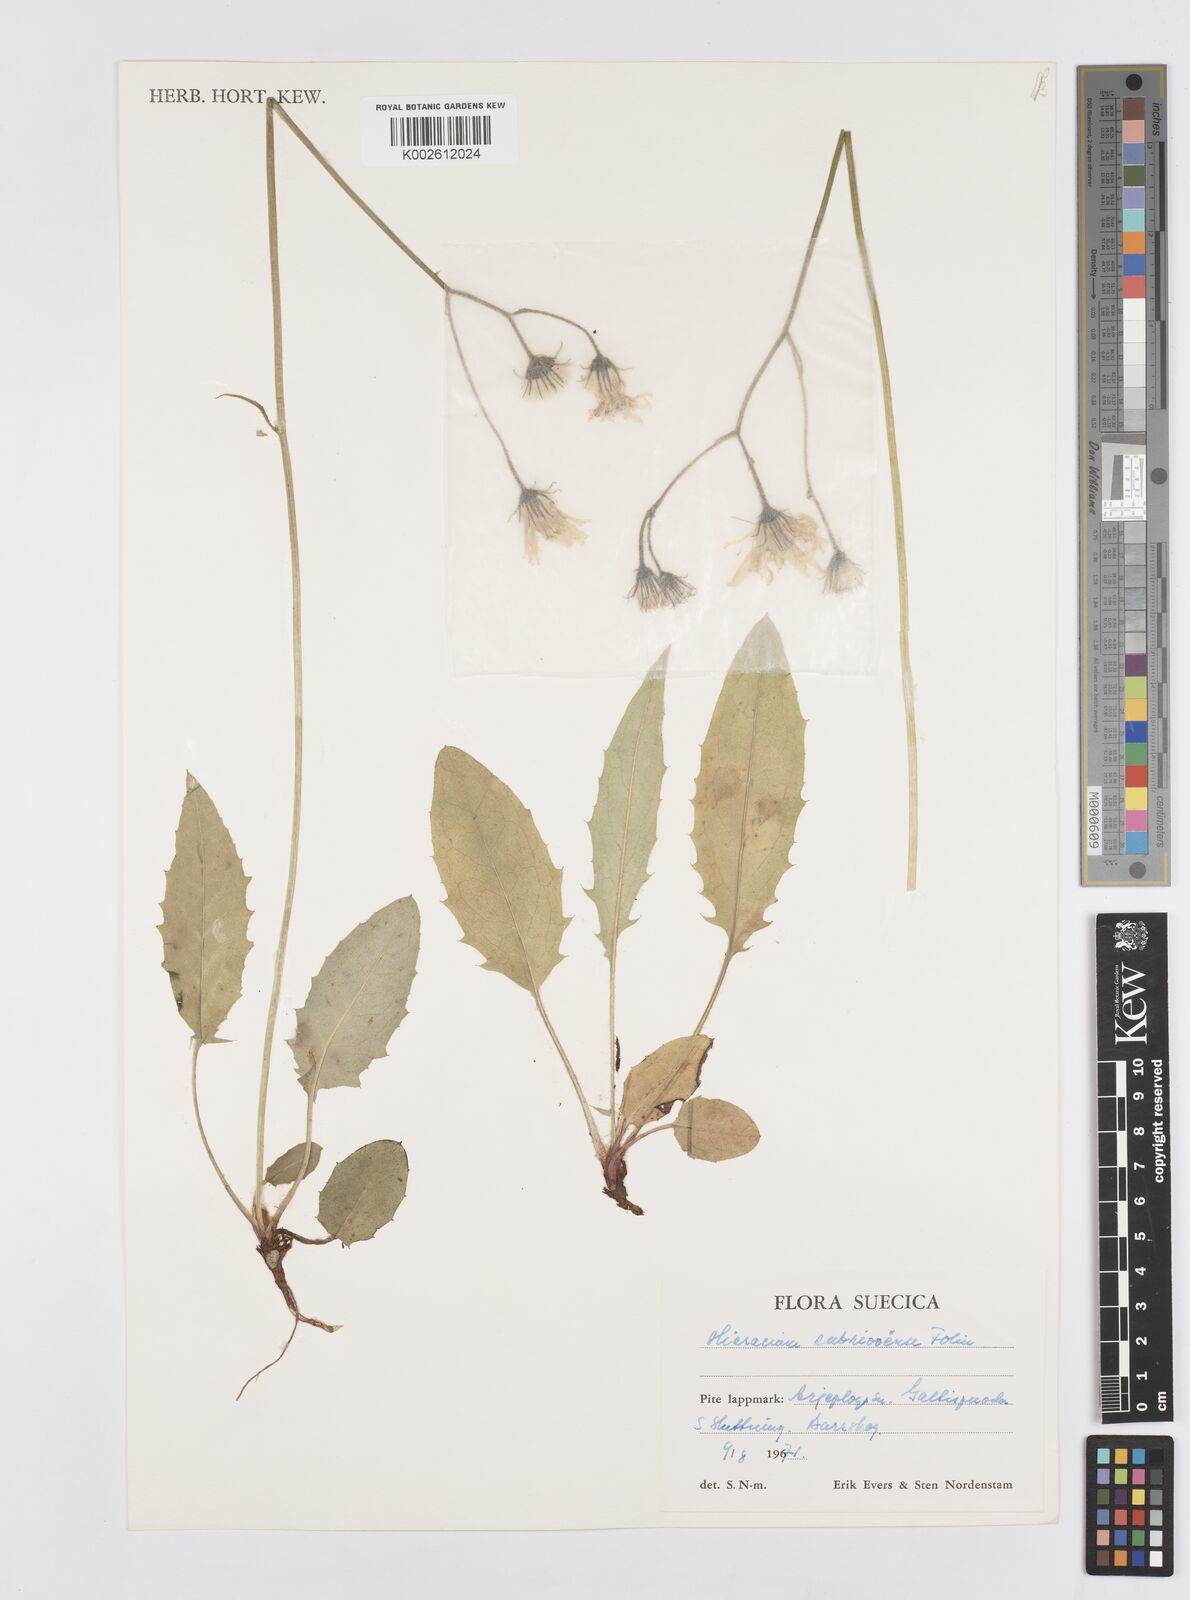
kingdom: Plantae
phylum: Tracheophyta
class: Magnoliopsida
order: Asterales
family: Asteraceae
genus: Hieracium
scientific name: Hieracium subrivoense
